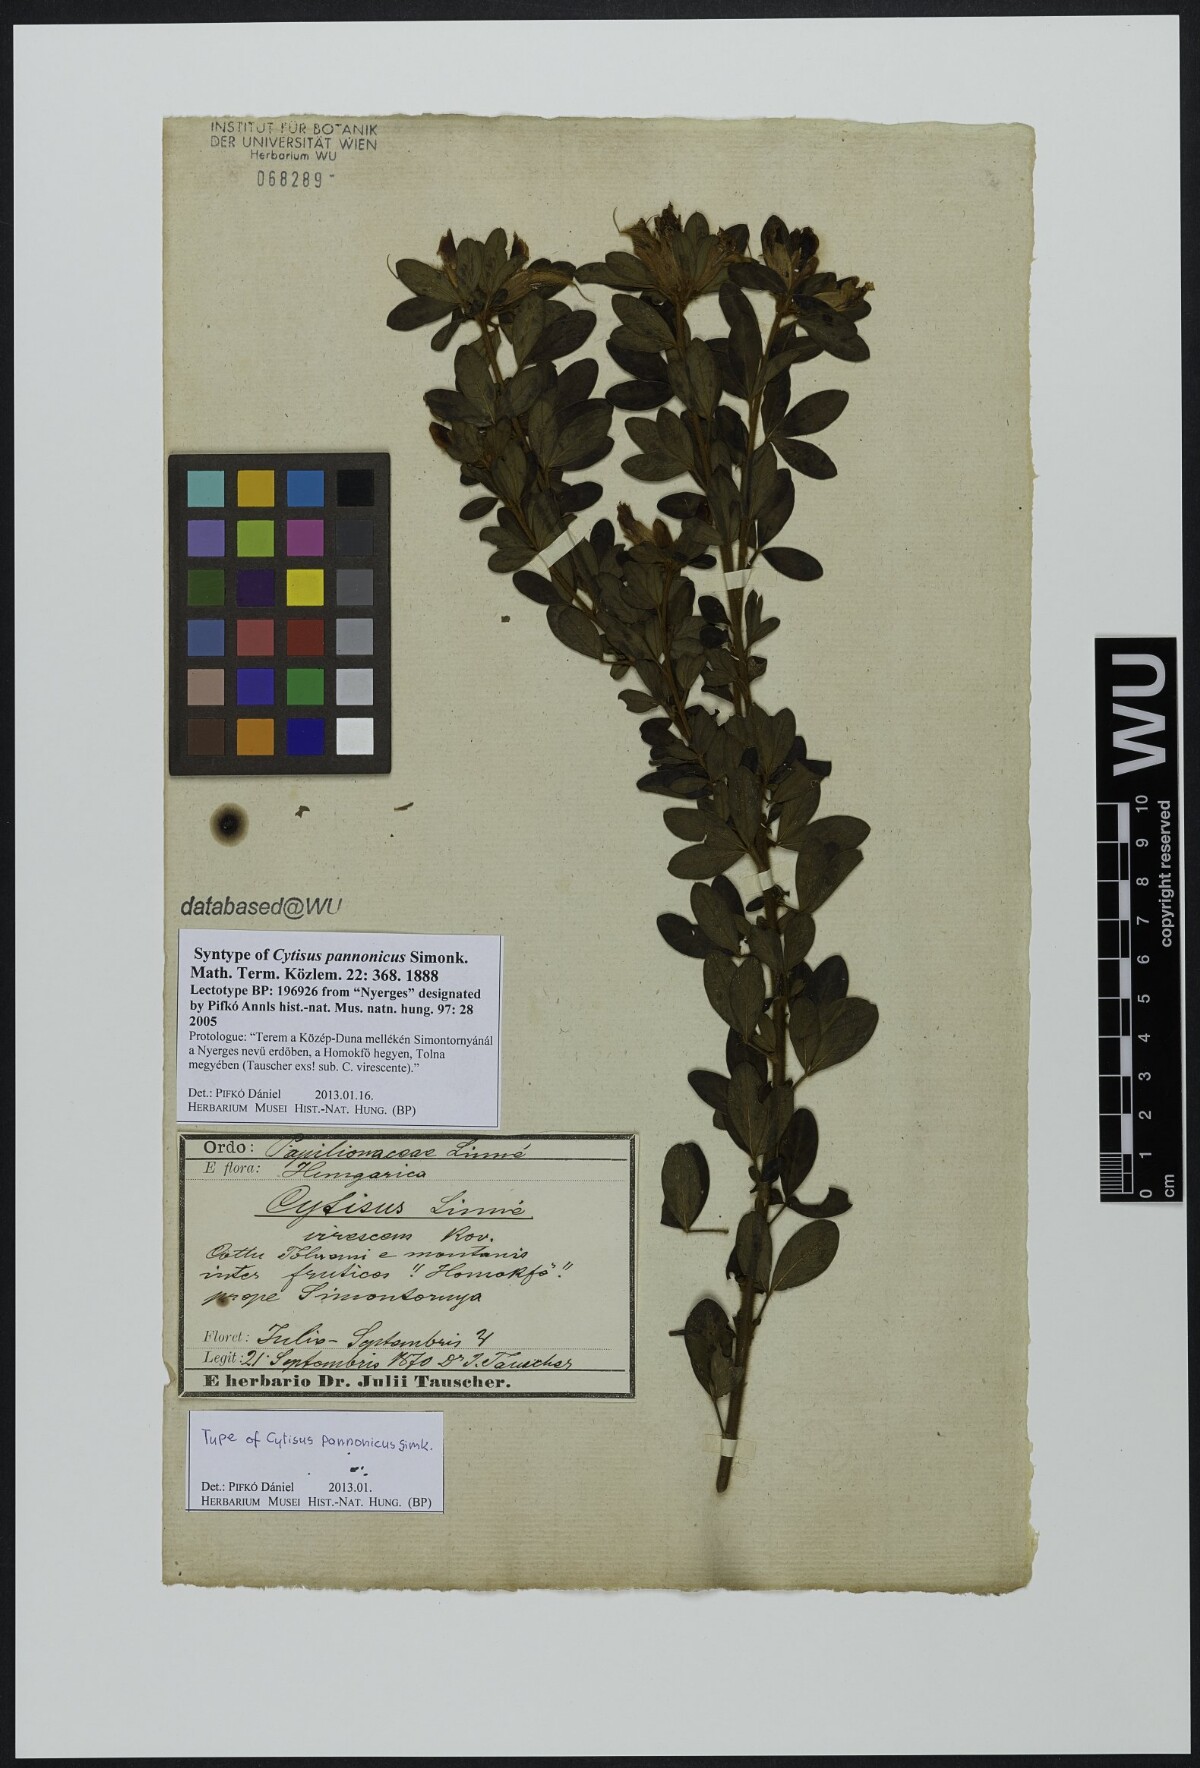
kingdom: Plantae
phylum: Tracheophyta
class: Magnoliopsida
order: Fabales
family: Fabaceae
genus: Chamaecytisus
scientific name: Chamaecytisus supinus
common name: Clustered broom
